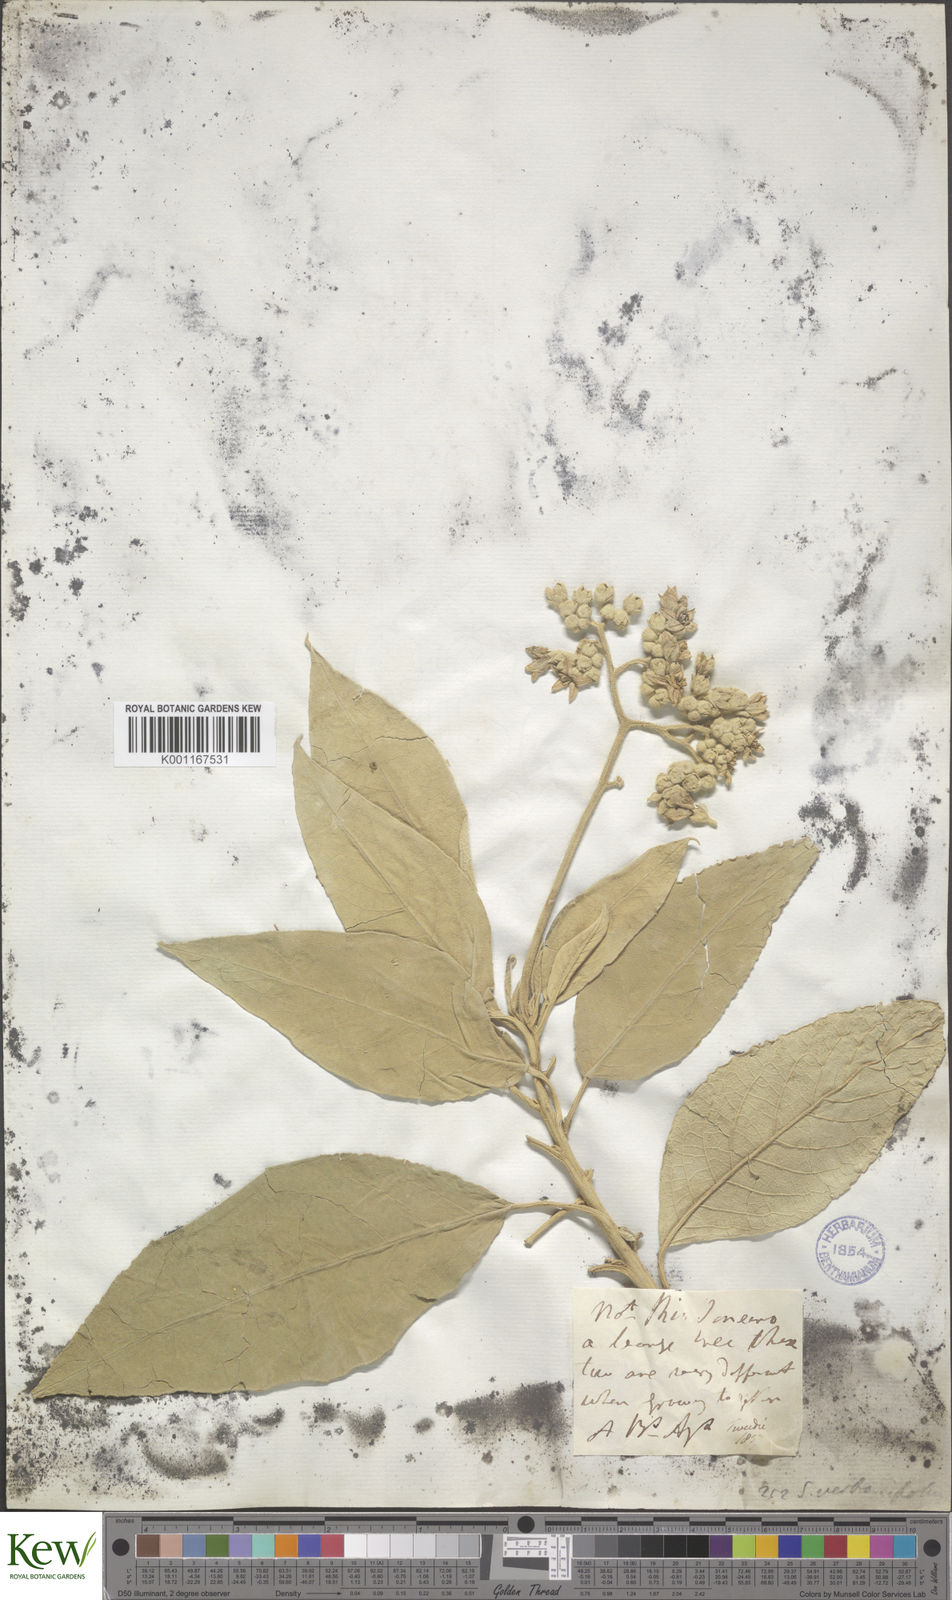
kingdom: Plantae
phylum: Tracheophyta
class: Magnoliopsida
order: Solanales
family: Solanaceae
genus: Solanum
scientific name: Solanum erianthum
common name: Tobacco-tree
